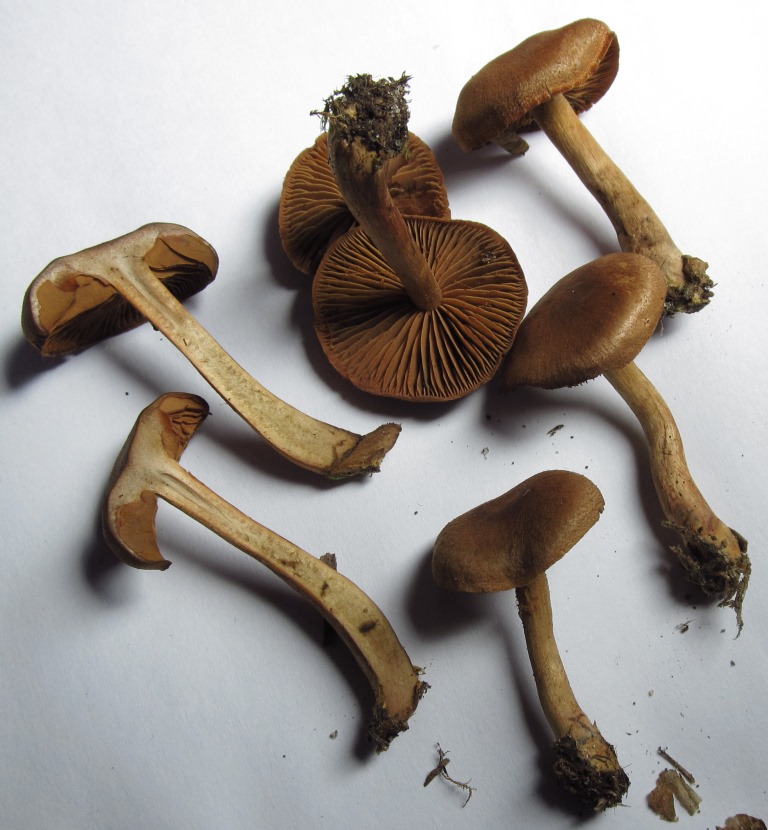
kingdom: Fungi
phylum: Basidiomycota
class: Agaricomycetes
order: Agaricales
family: Cortinariaceae
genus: Cortinarius
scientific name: Cortinarius cinnamomeus
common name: kanel-slørhat
